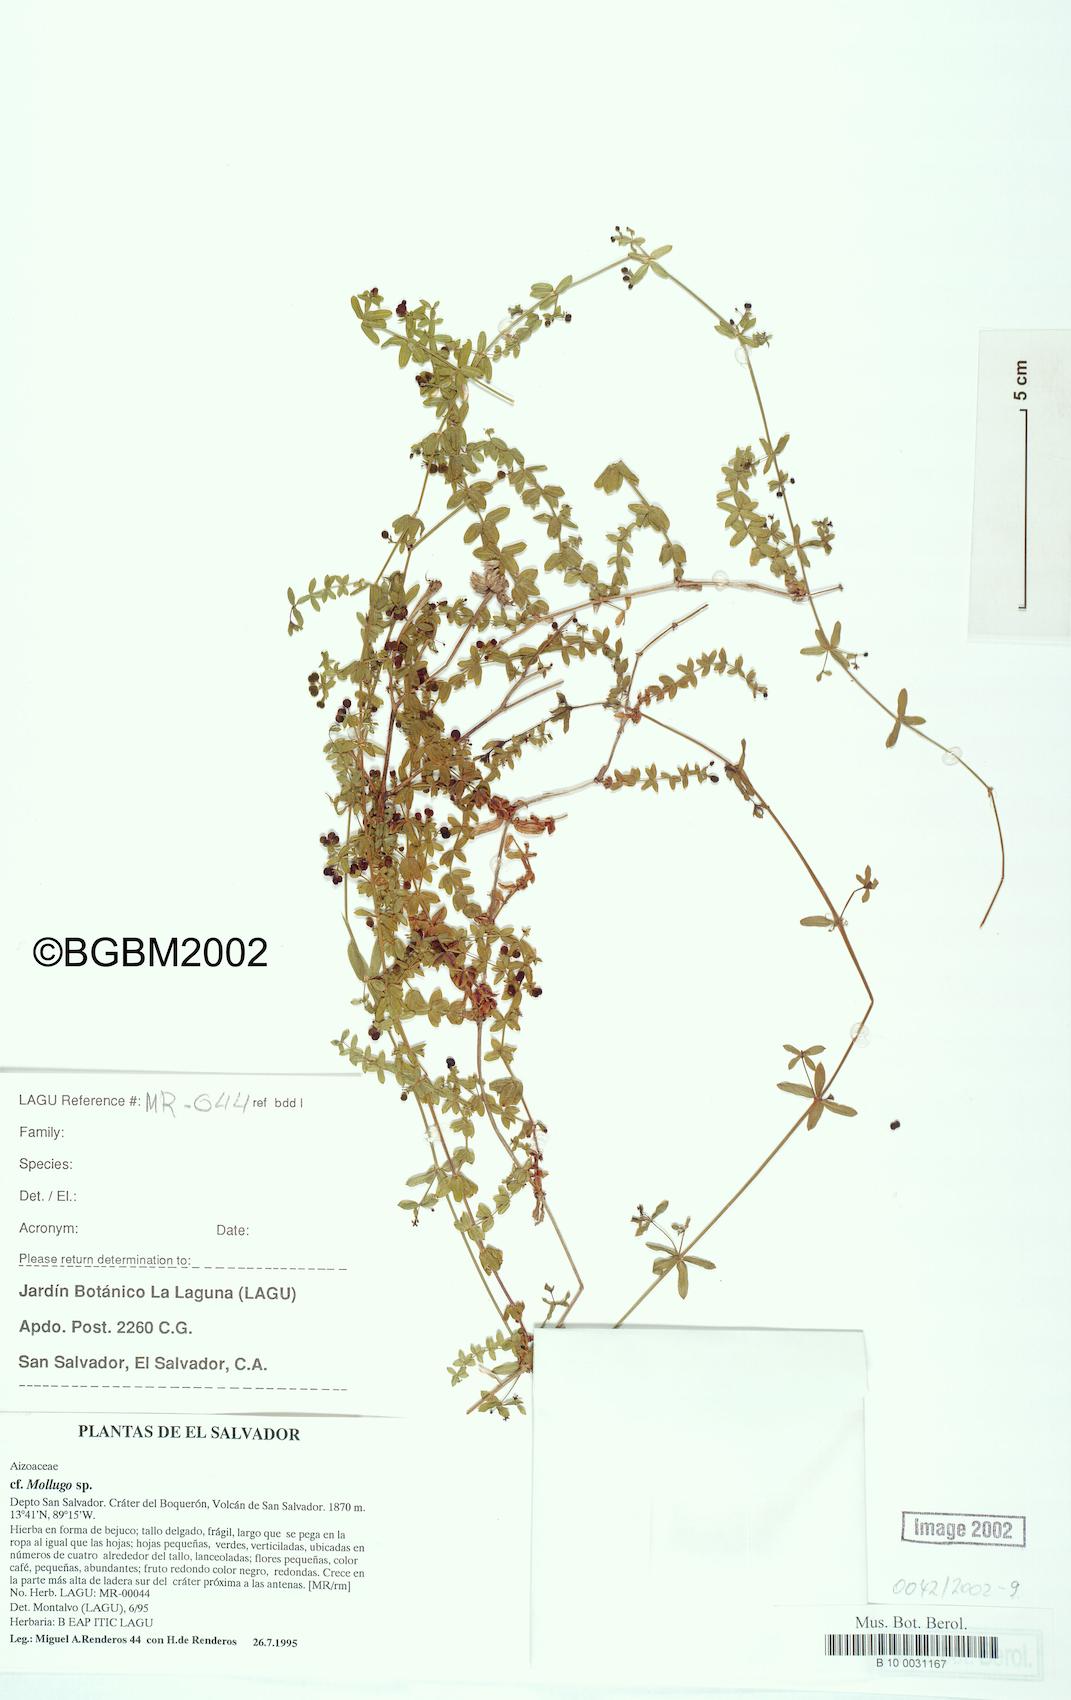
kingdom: Plantae
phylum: Tracheophyta
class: Magnoliopsida
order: Gentianales
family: Rubiaceae
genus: Galium
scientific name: Galium aschenbornii
